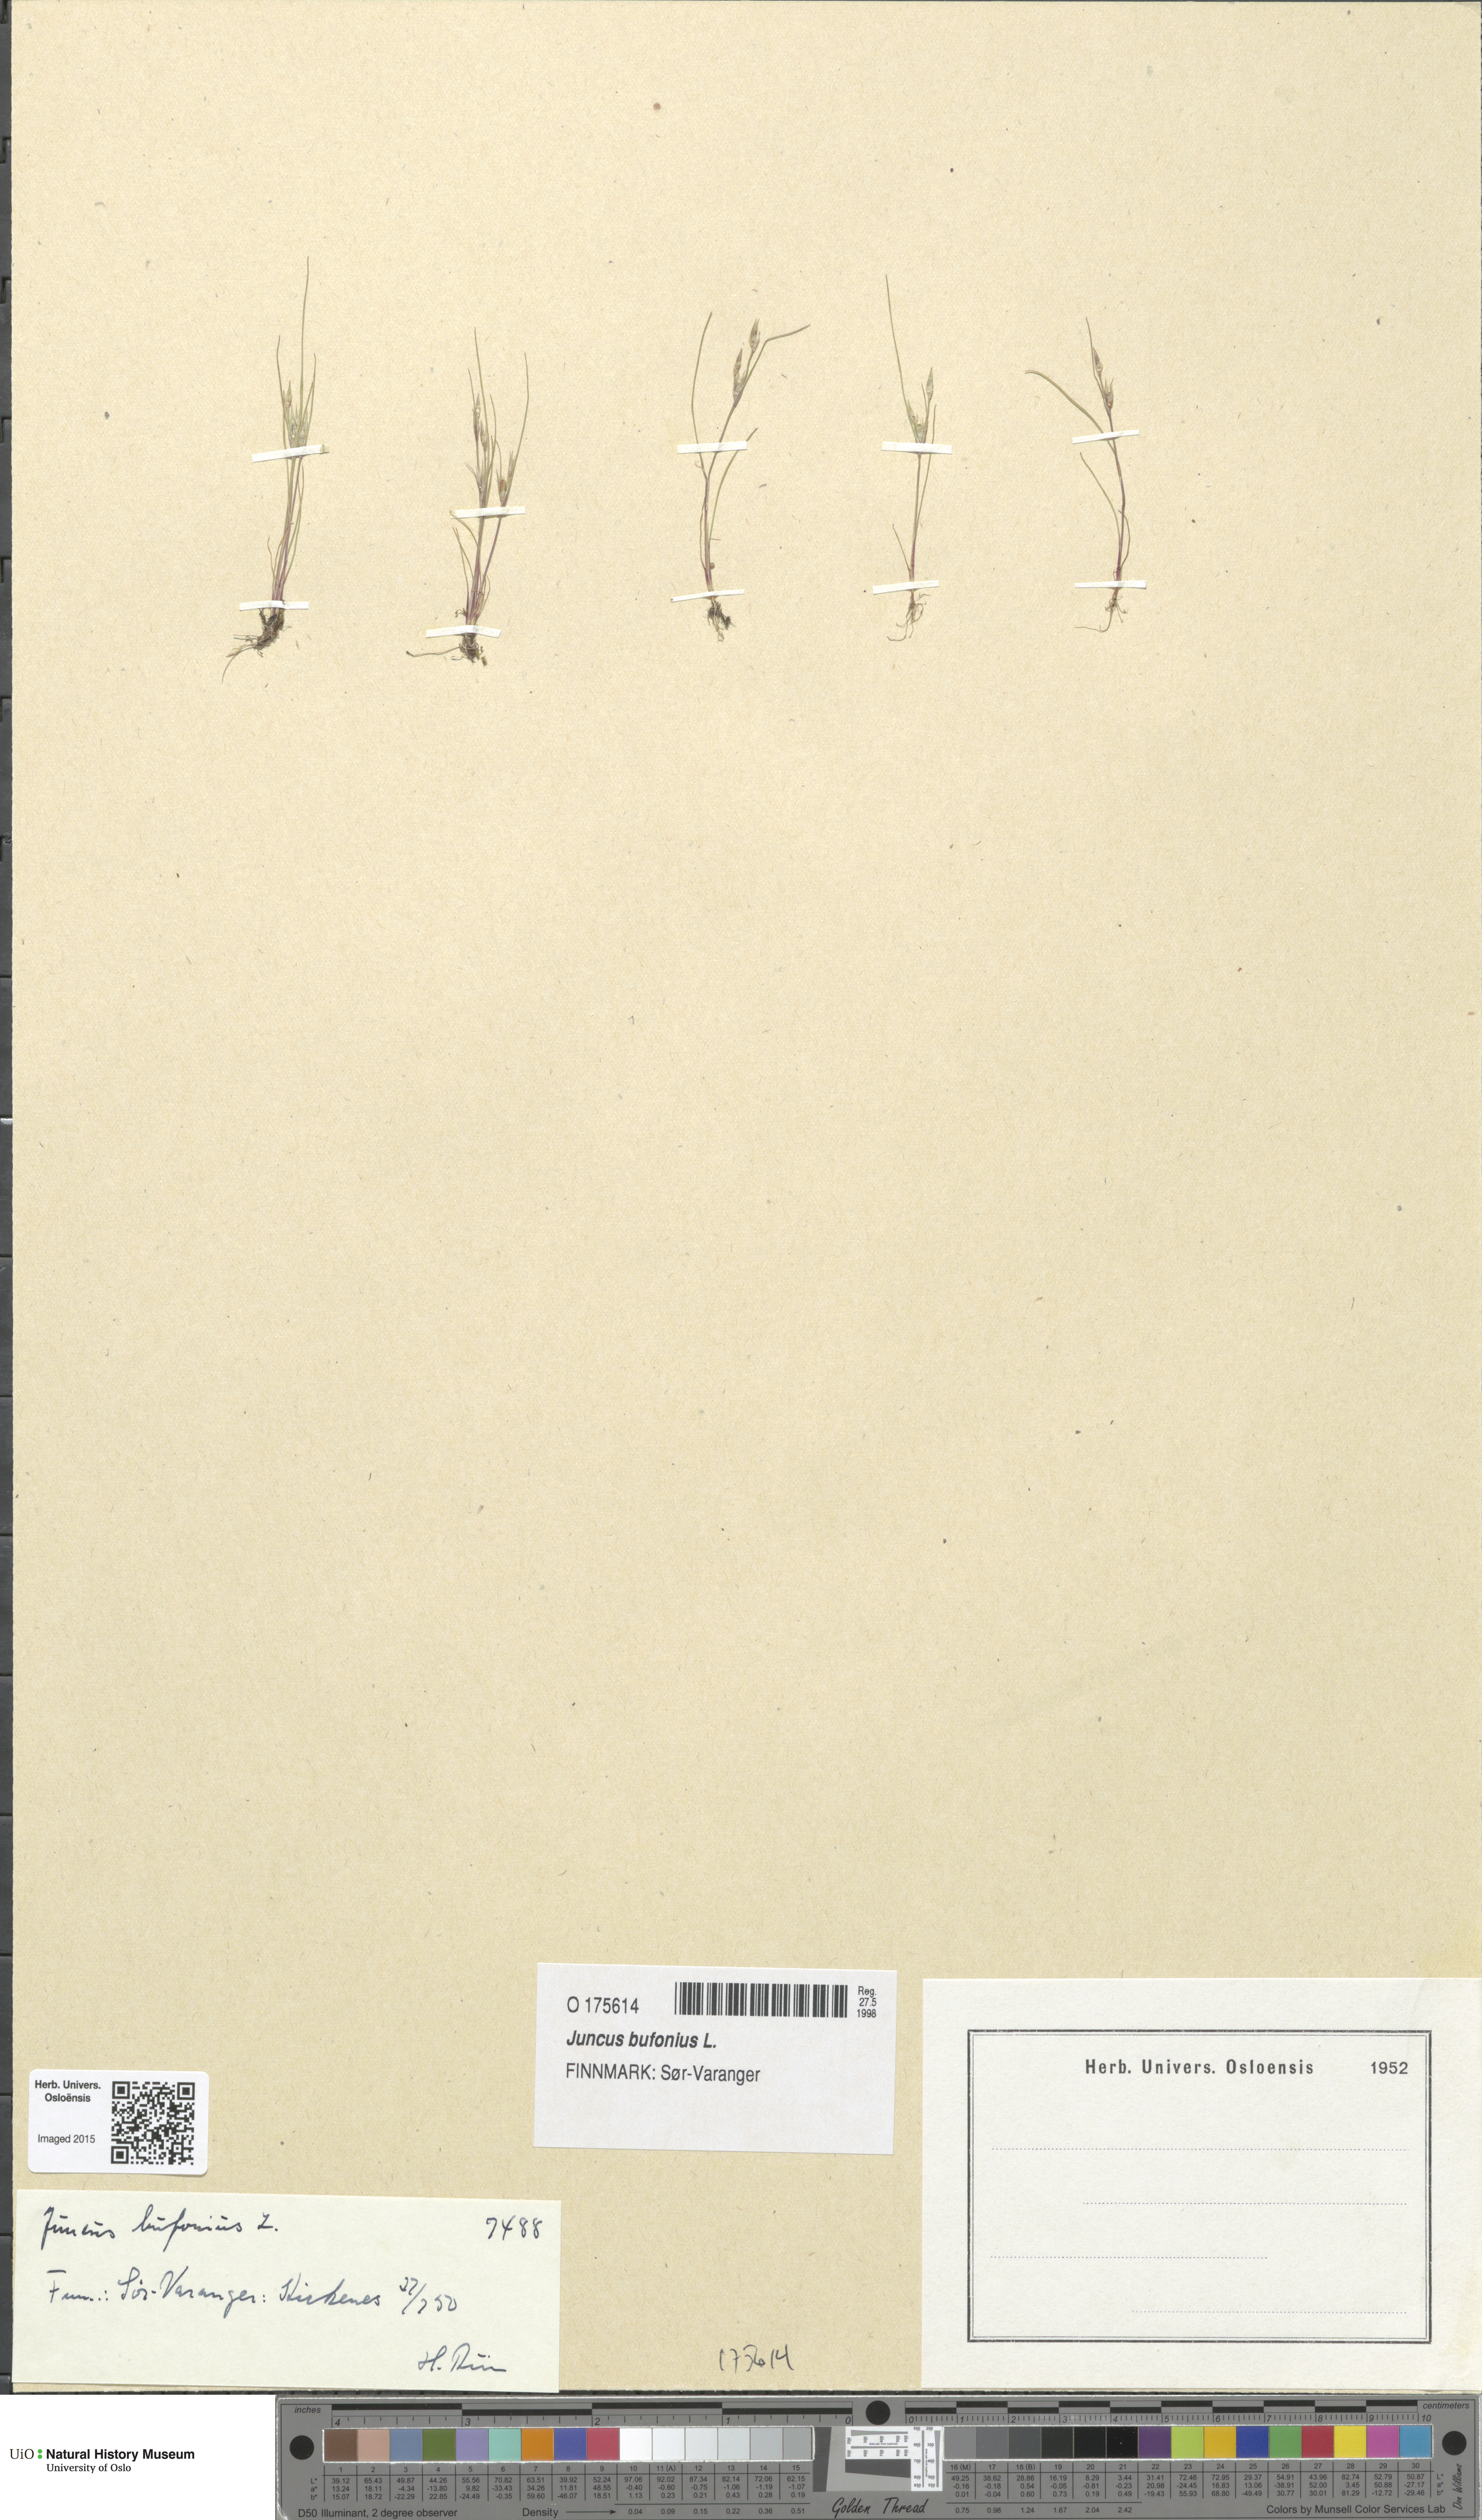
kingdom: Plantae
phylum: Tracheophyta
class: Liliopsida
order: Poales
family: Juncaceae
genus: Juncus
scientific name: Juncus bufonius
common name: Toad rush
